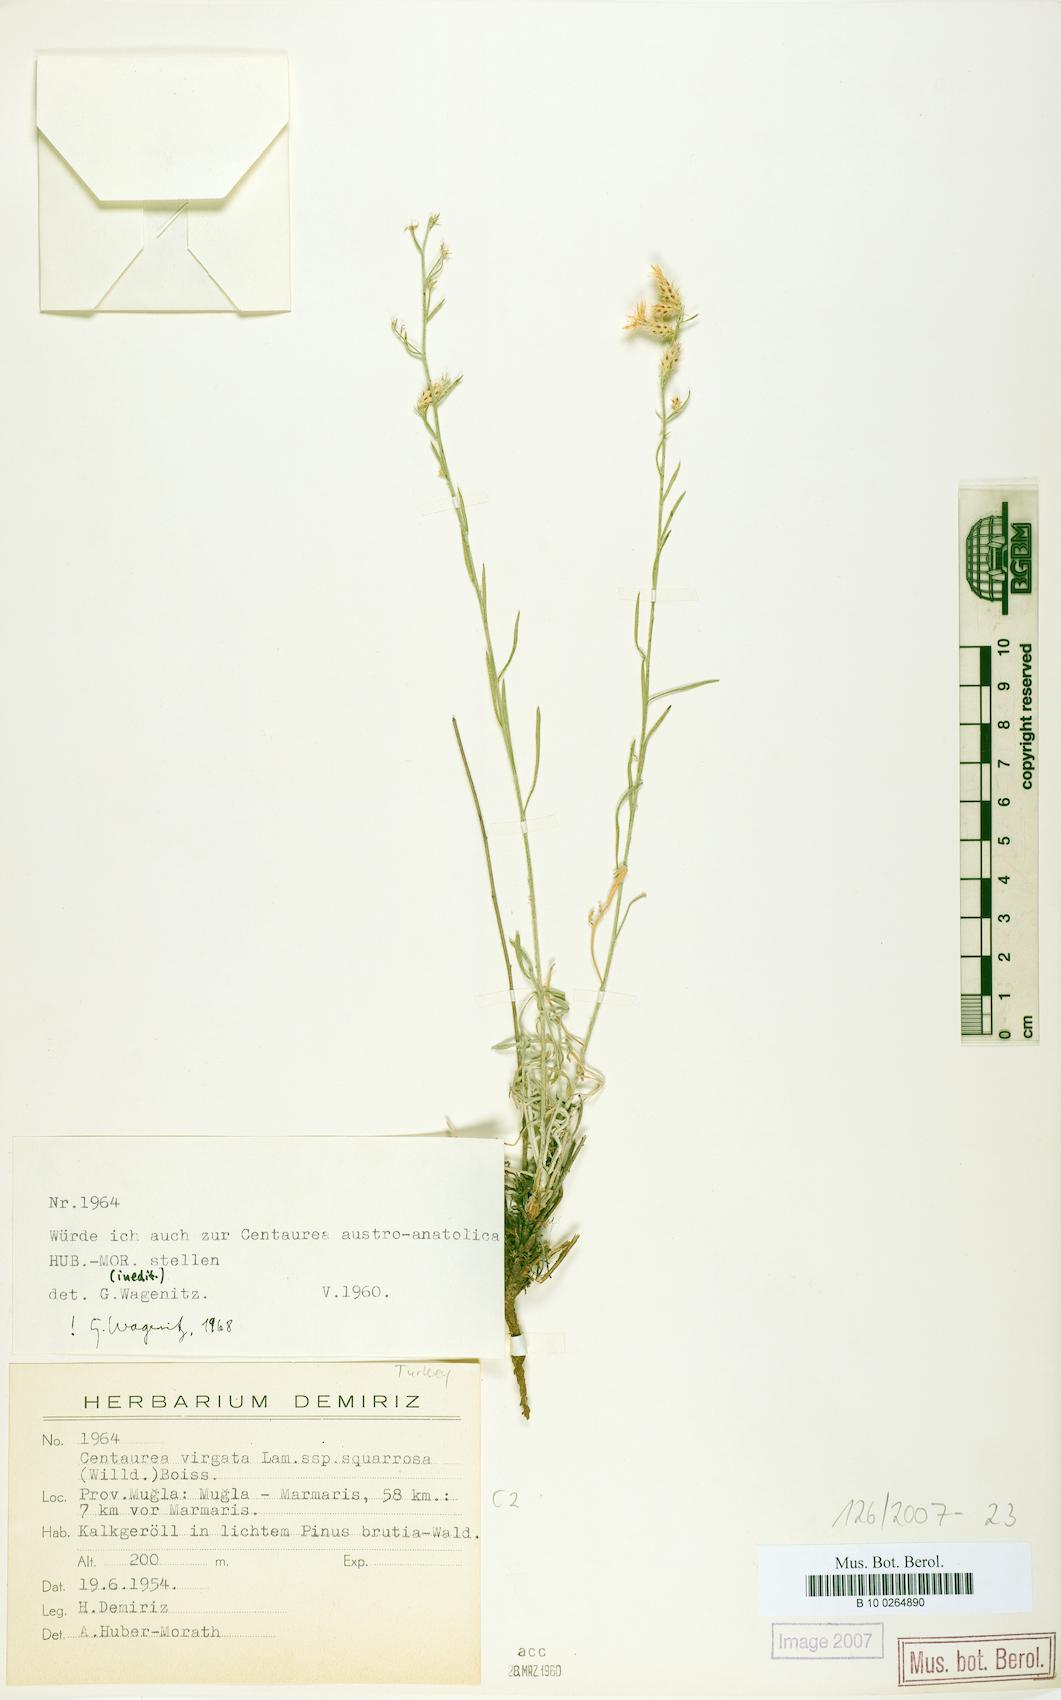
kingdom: Plantae
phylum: Tracheophyta
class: Magnoliopsida
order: Asterales
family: Asteraceae
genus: Centaurea
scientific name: Centaurea austroanatolica
